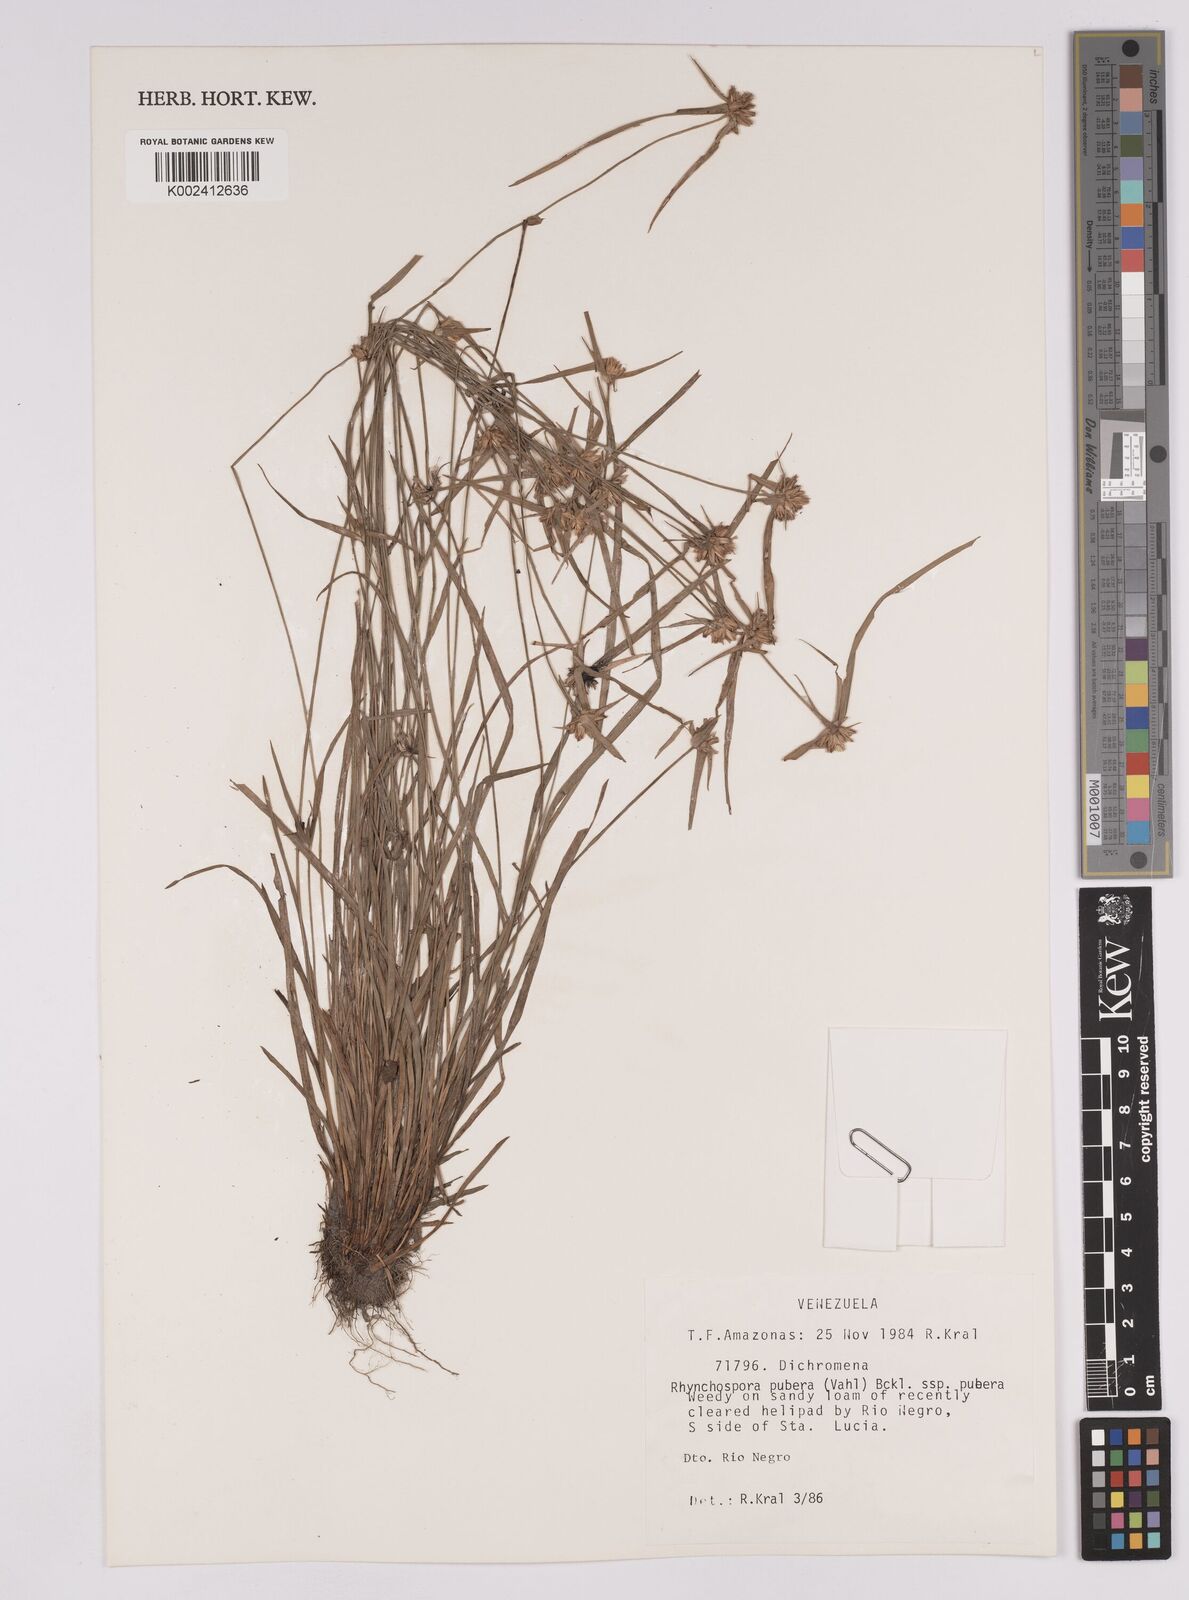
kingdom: Plantae
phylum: Tracheophyta
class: Liliopsida
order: Poales
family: Cyperaceae
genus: Rhynchospora
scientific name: Rhynchospora pubera
